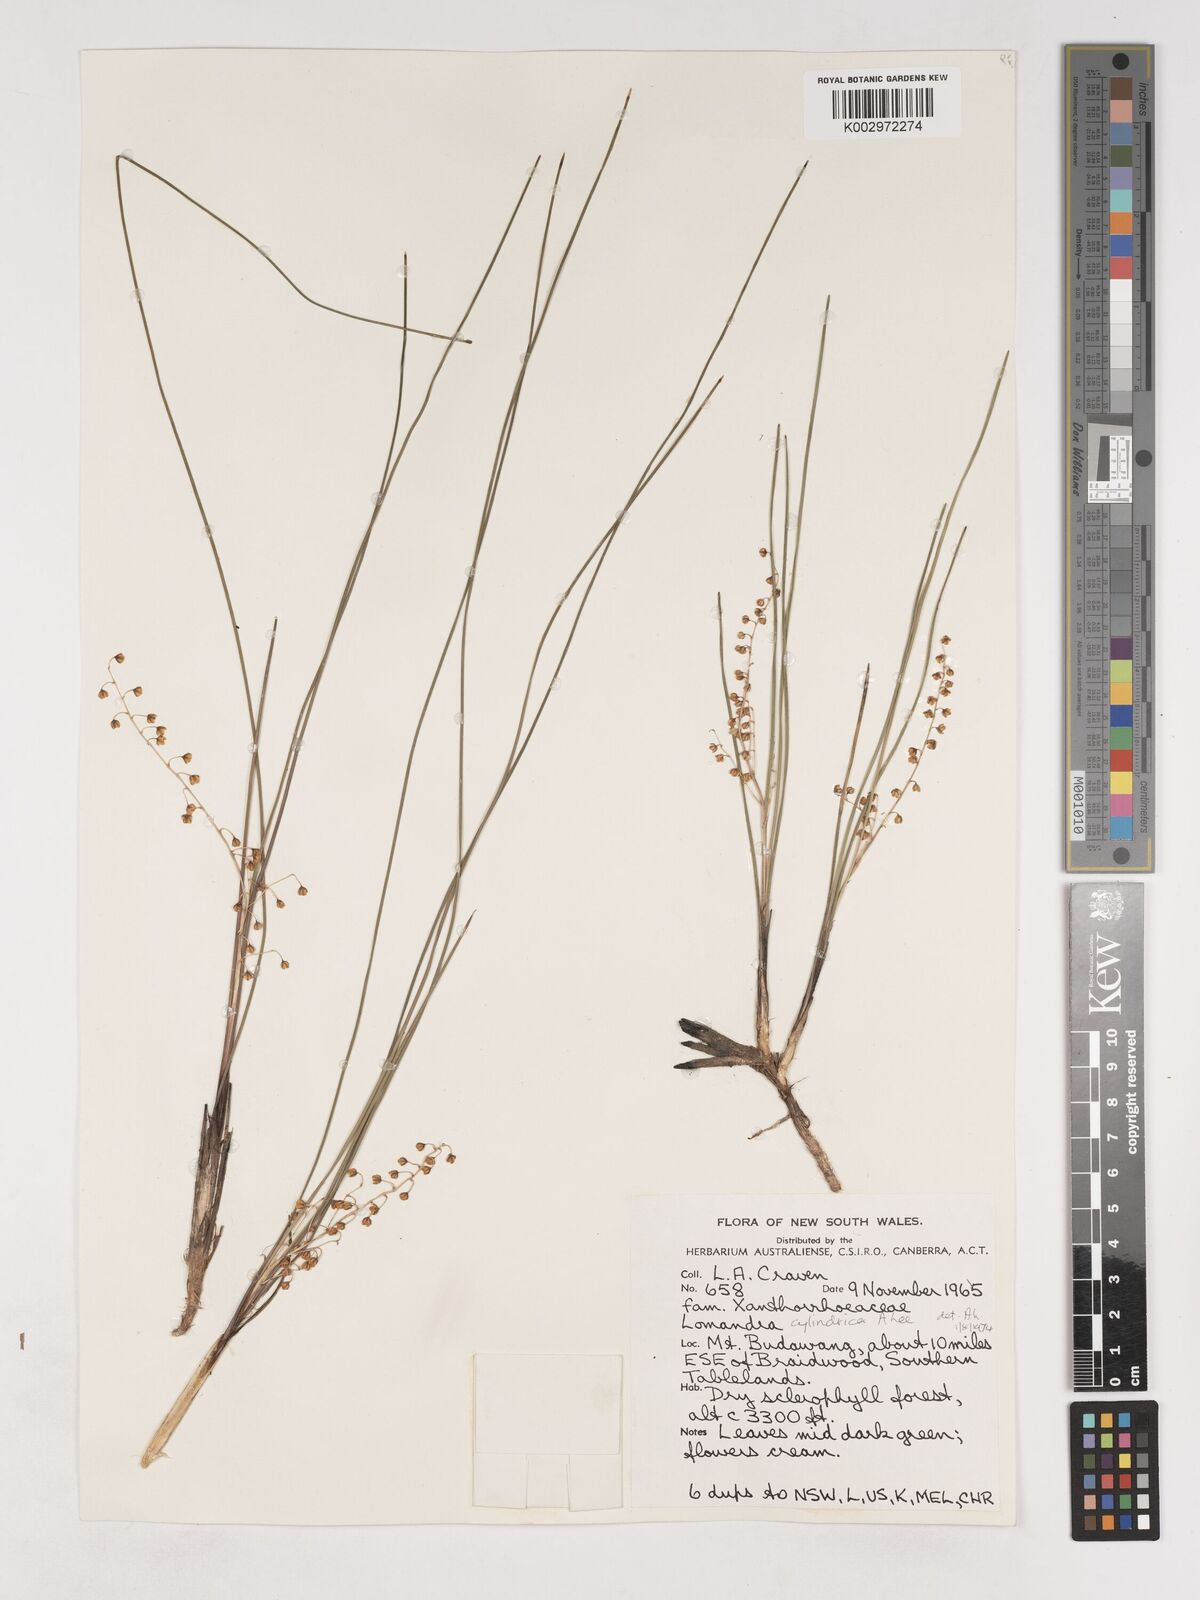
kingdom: Plantae
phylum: Tracheophyta
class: Liliopsida
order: Asparagales
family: Asparagaceae
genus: Lomandra
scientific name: Lomandra
